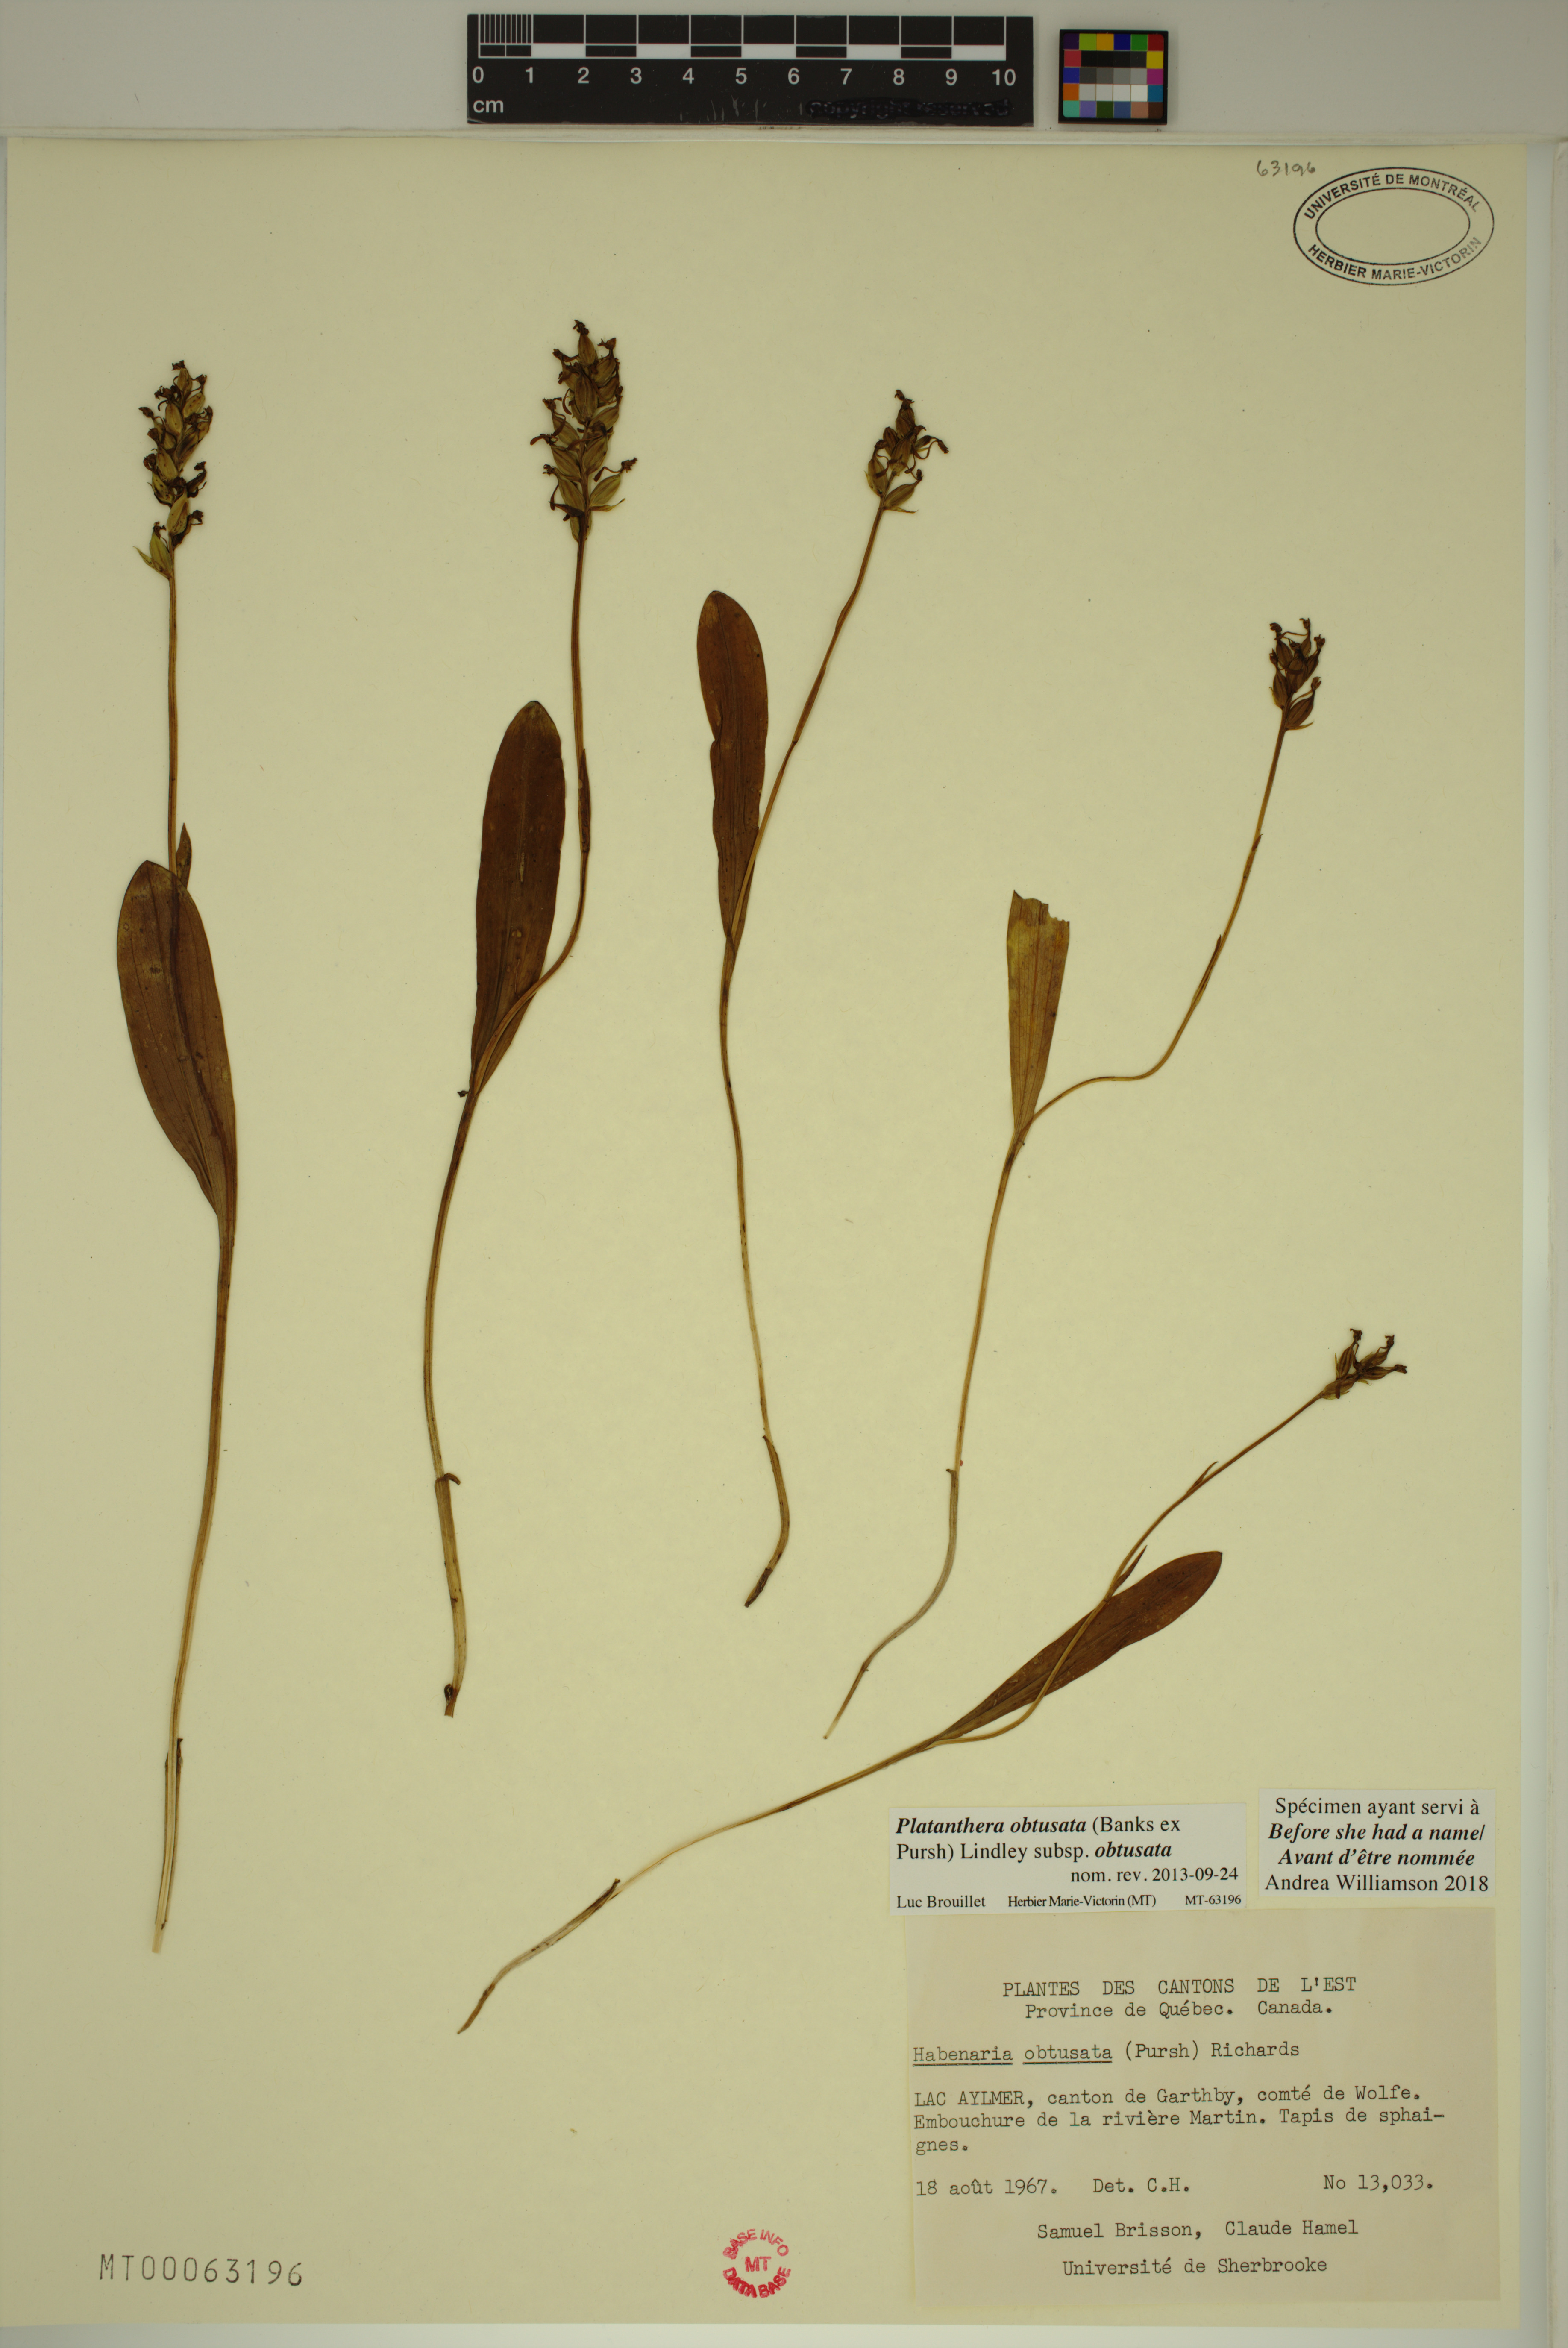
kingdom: Plantae
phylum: Tracheophyta
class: Liliopsida
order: Asparagales
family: Orchidaceae
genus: Platanthera
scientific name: Platanthera obtusata
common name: Blunt bog orchid
